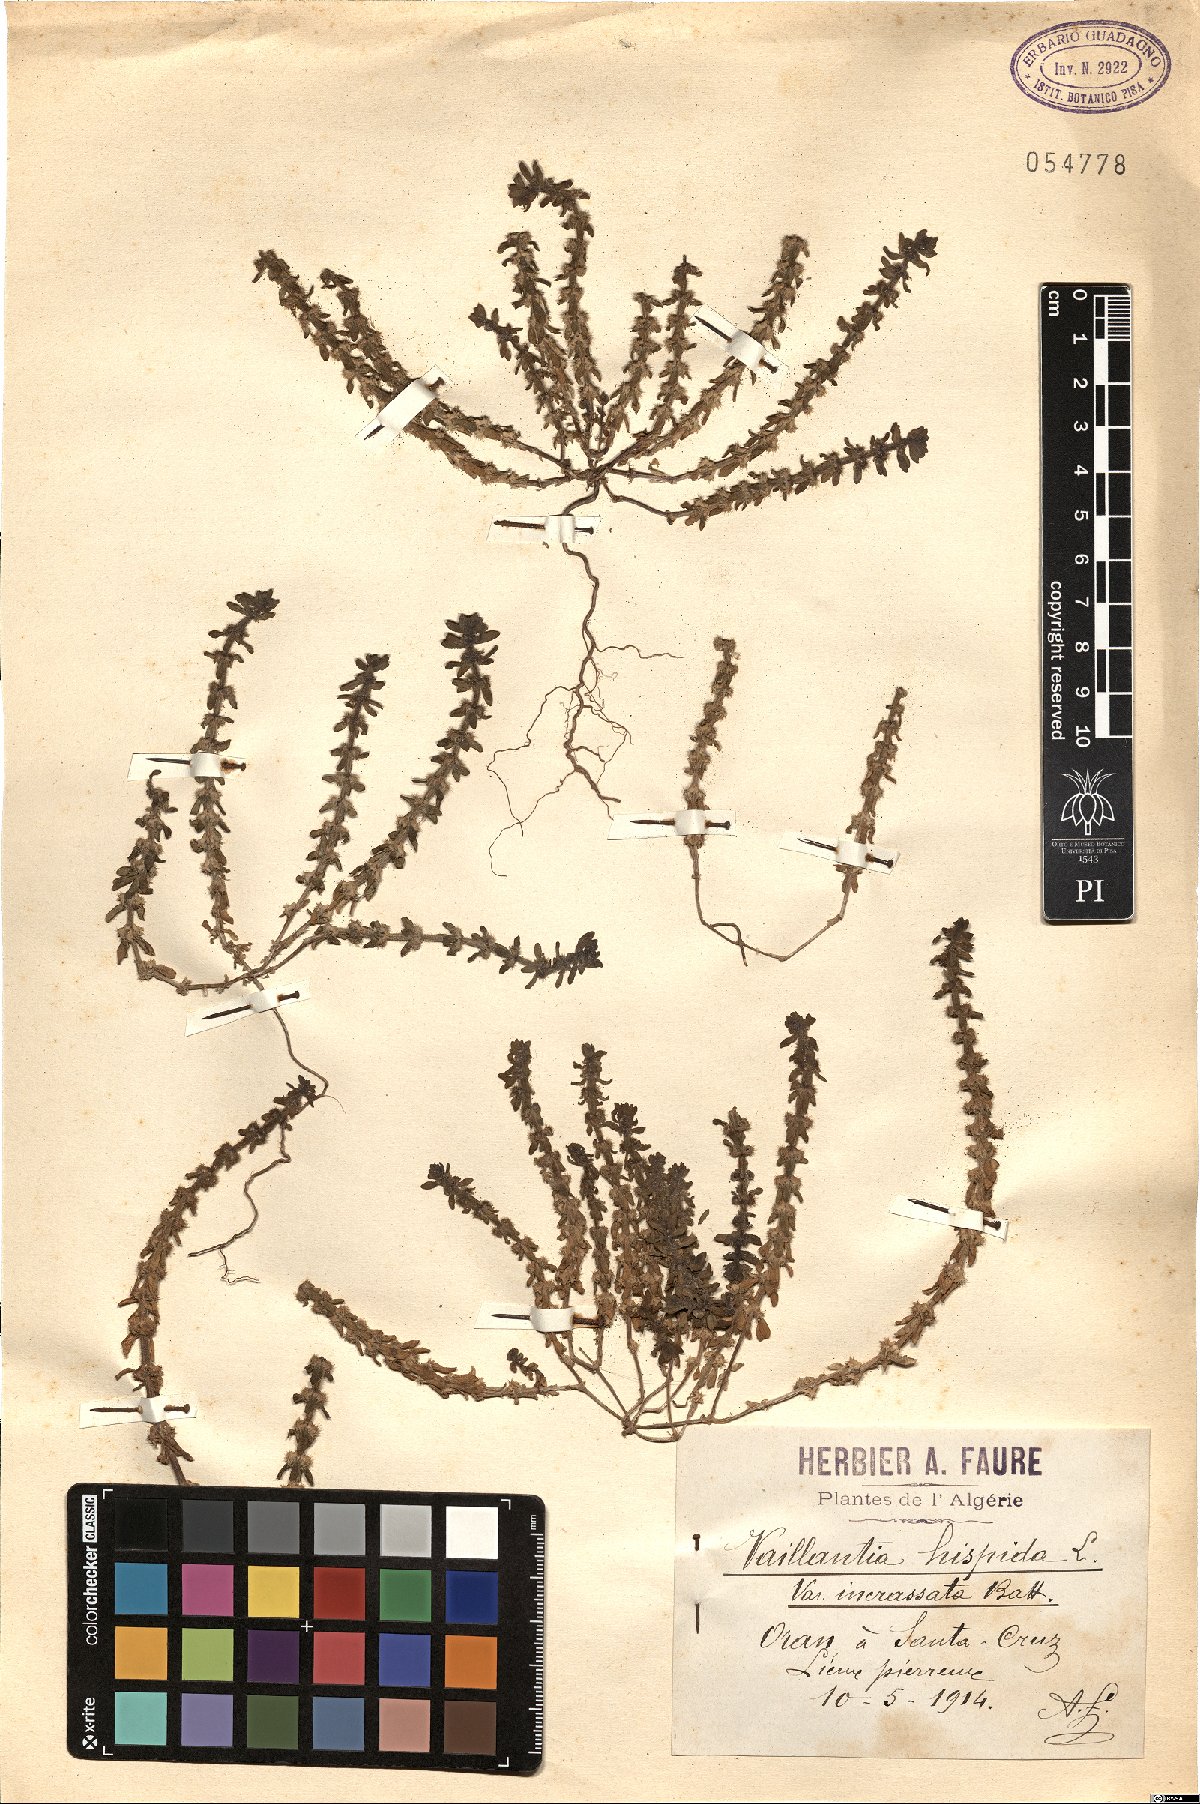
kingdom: Plantae
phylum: Tracheophyta
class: Magnoliopsida
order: Gentianales
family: Rubiaceae
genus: Valantia
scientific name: Valantia muralis
